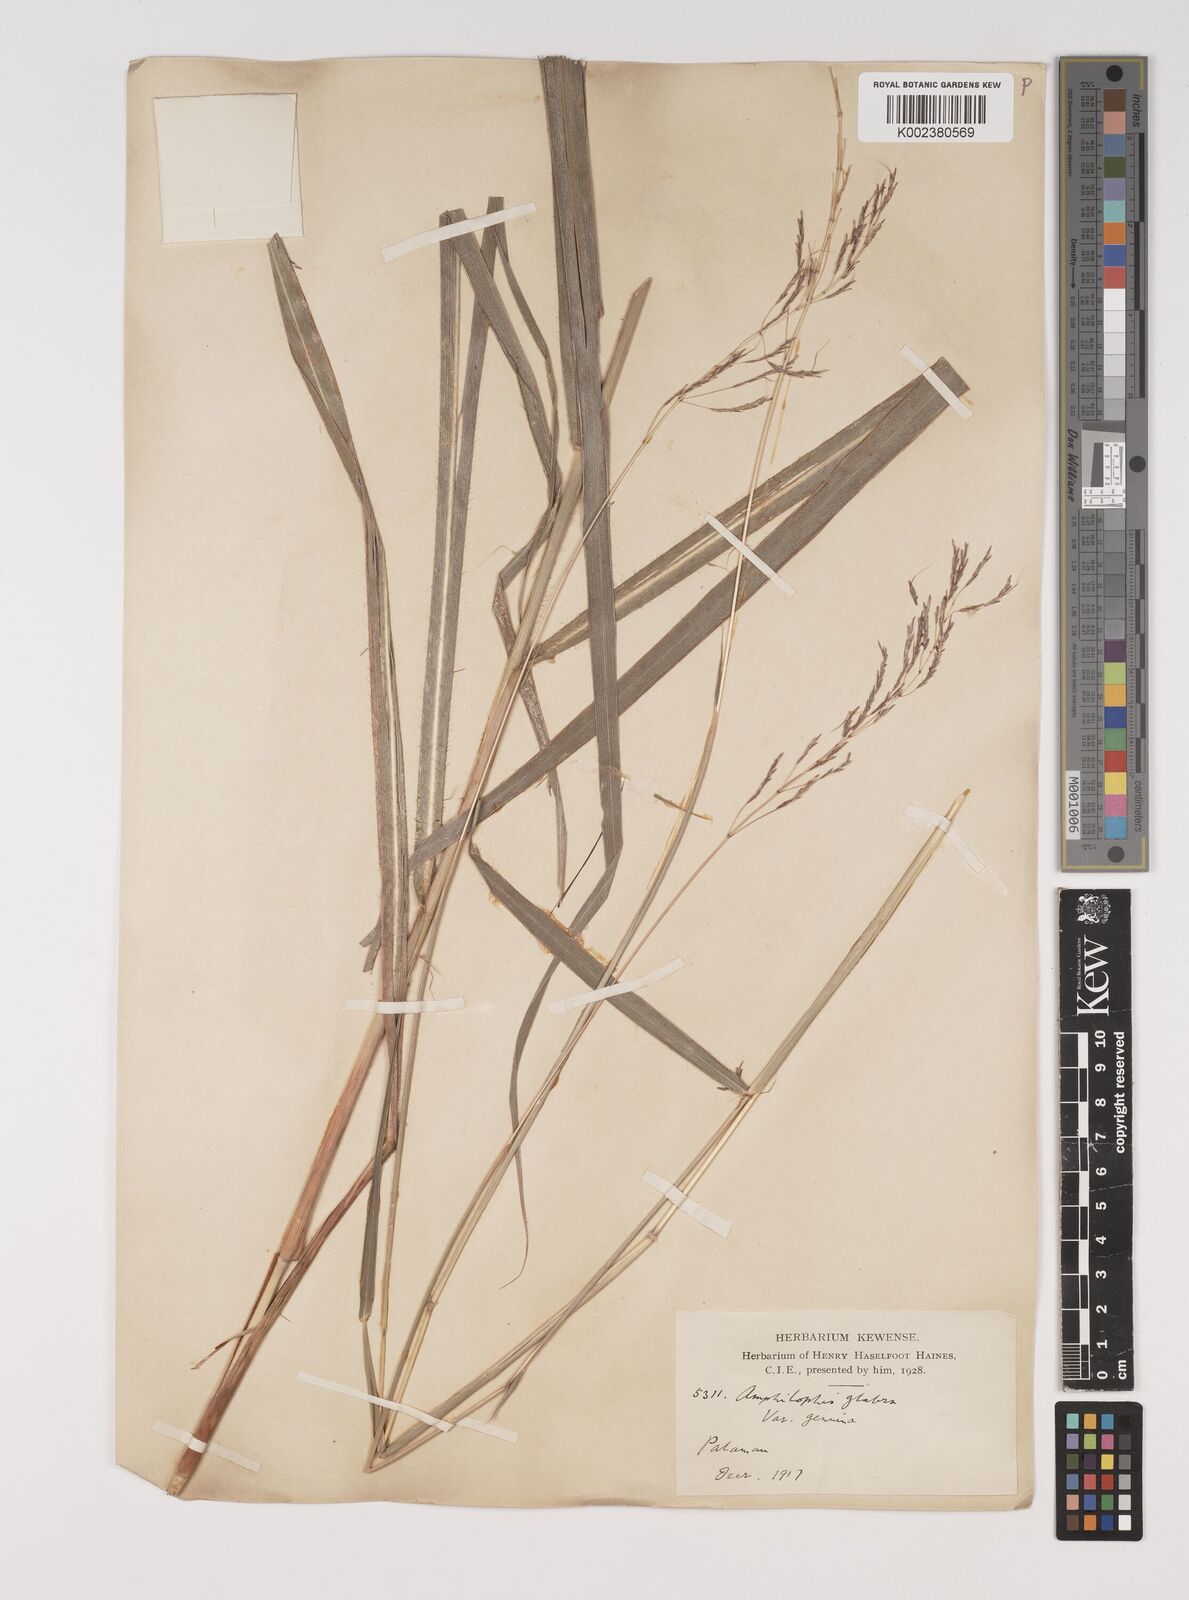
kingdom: Plantae
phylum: Tracheophyta
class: Liliopsida
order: Poales
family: Poaceae
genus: Bothriochloa
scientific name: Bothriochloa bladhii
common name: Caucasian bluestem
